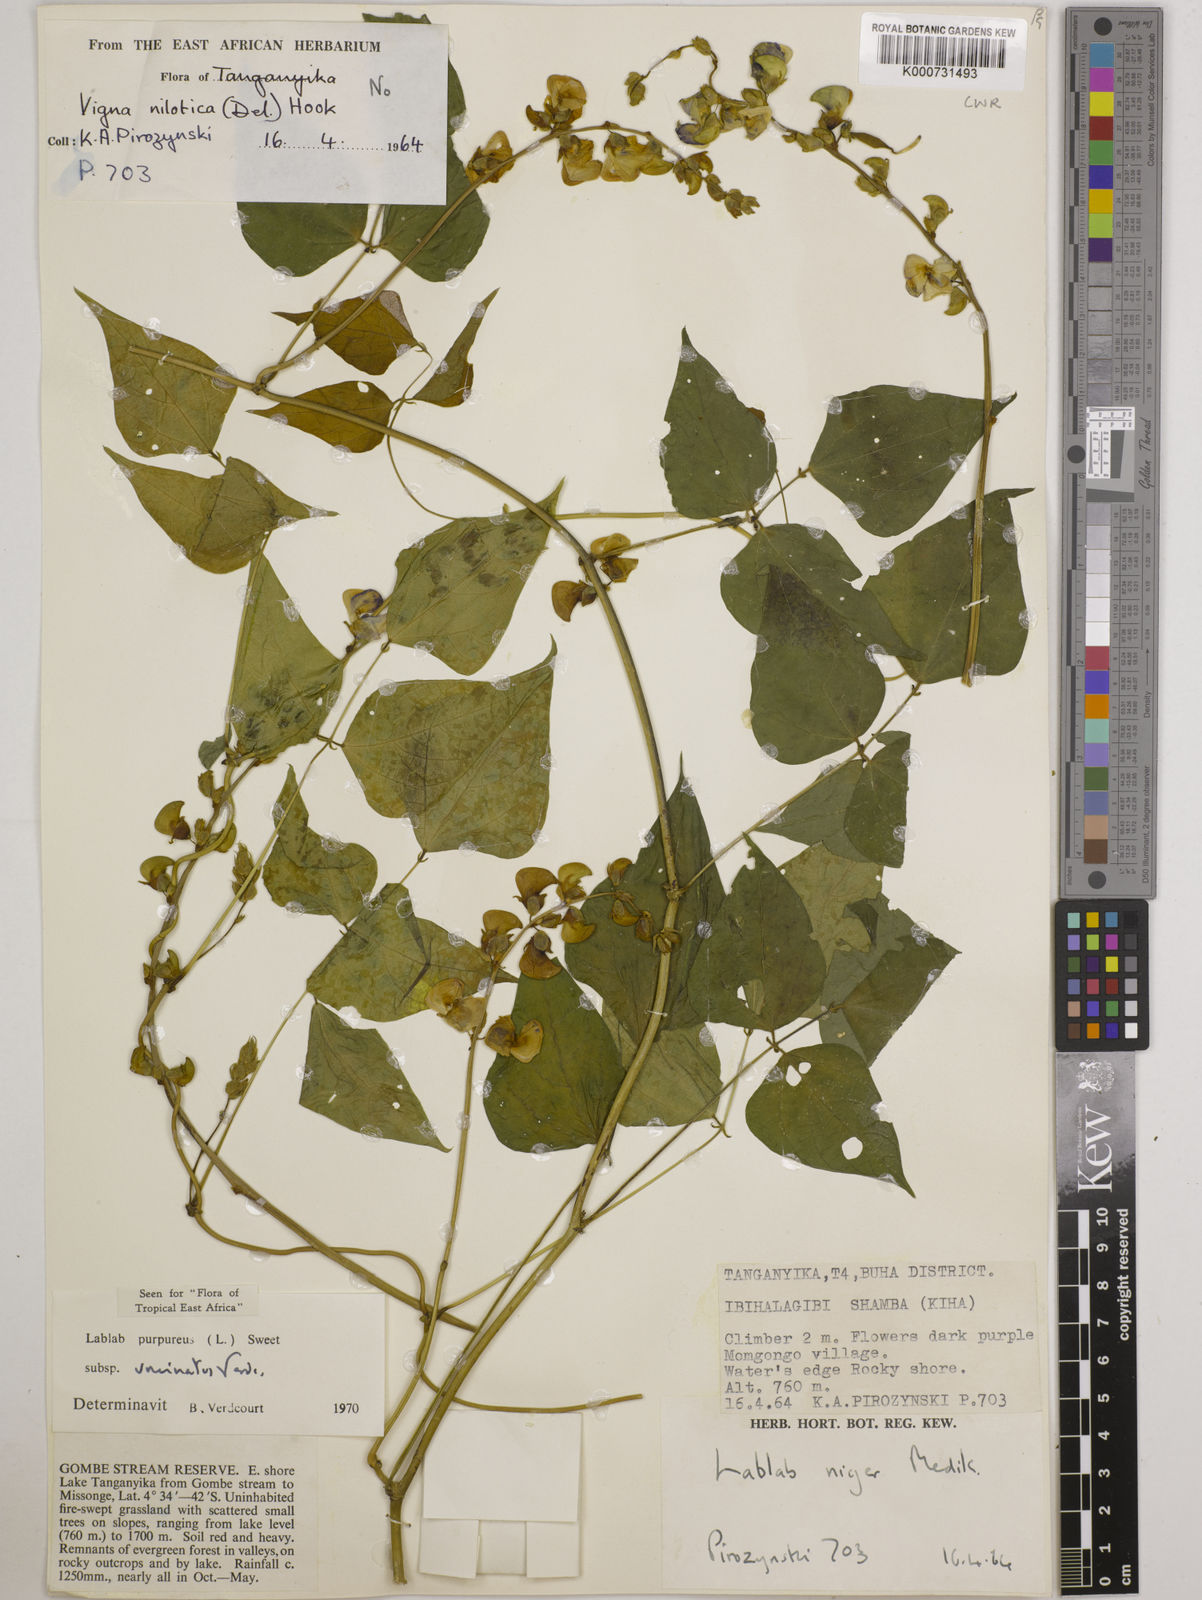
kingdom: Plantae
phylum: Tracheophyta
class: Magnoliopsida
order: Fabales
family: Fabaceae
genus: Lablab
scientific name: Lablab purpureus
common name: Lablab-bean
